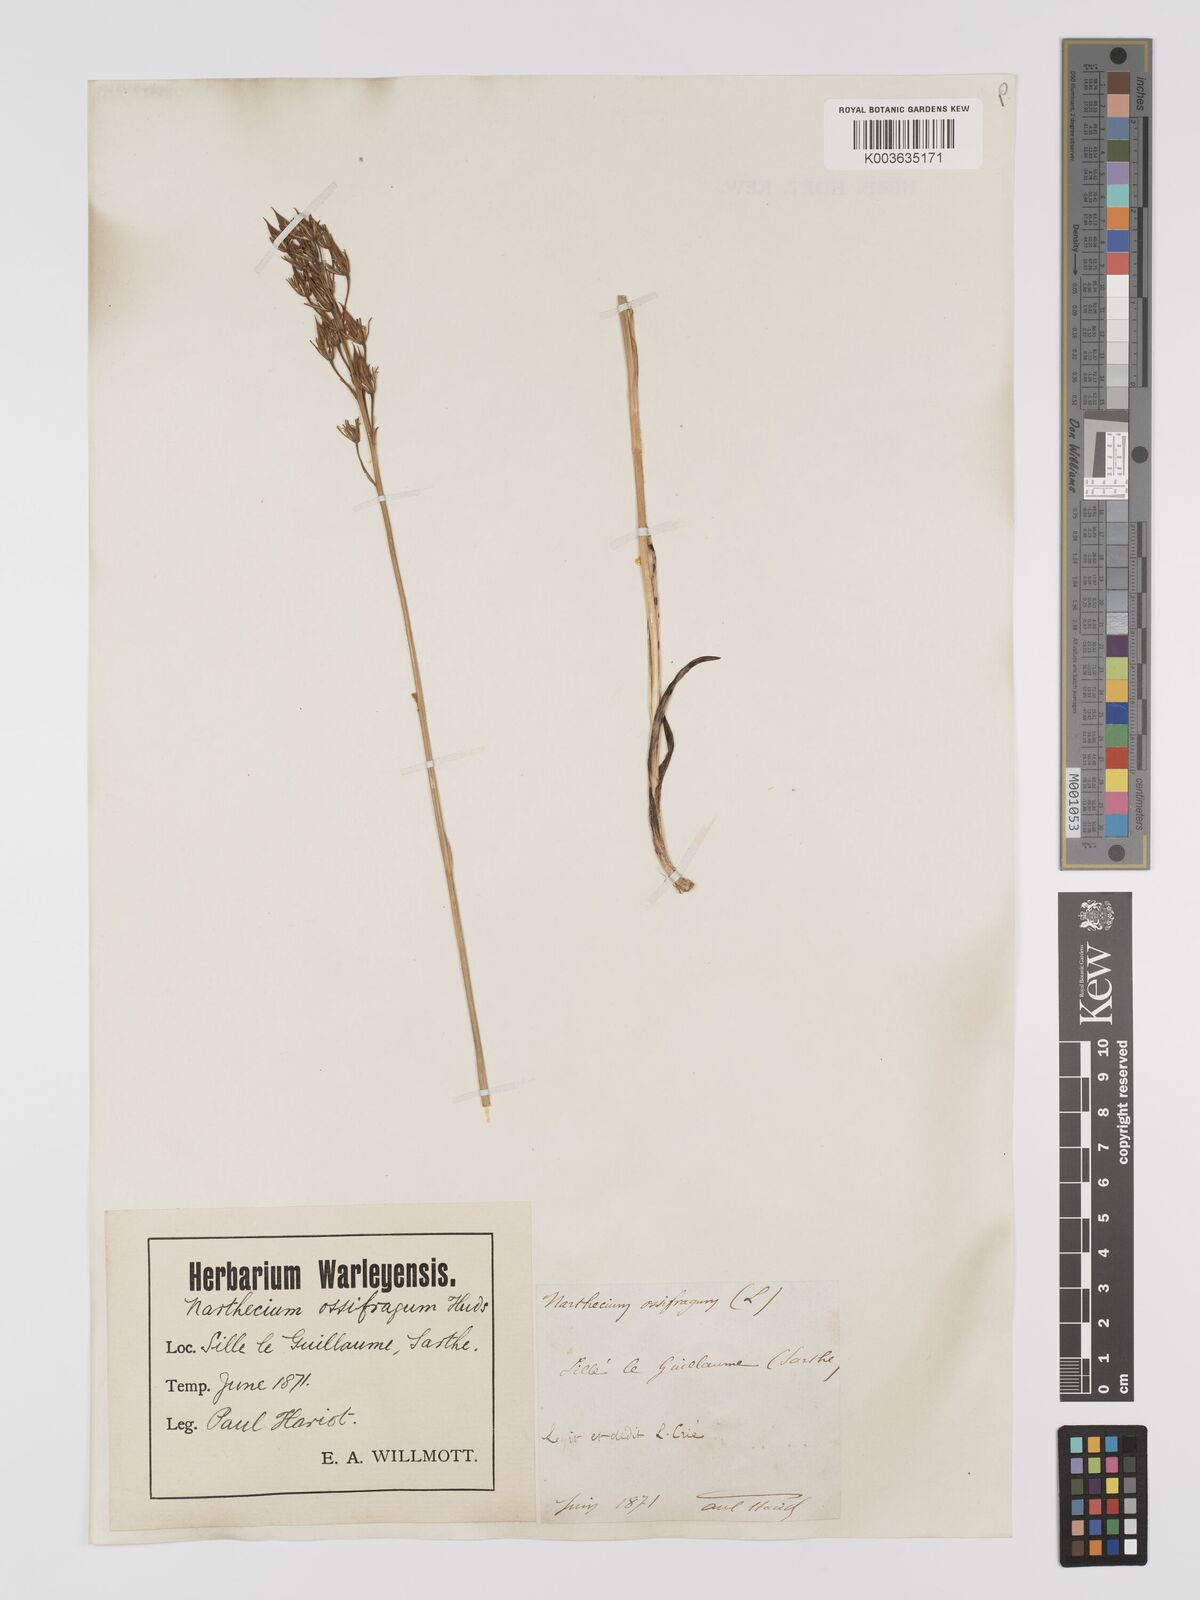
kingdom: Plantae
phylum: Tracheophyta
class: Liliopsida
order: Dioscoreales
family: Nartheciaceae
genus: Narthecium
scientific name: Narthecium ossifragum
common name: Bog asphodel
